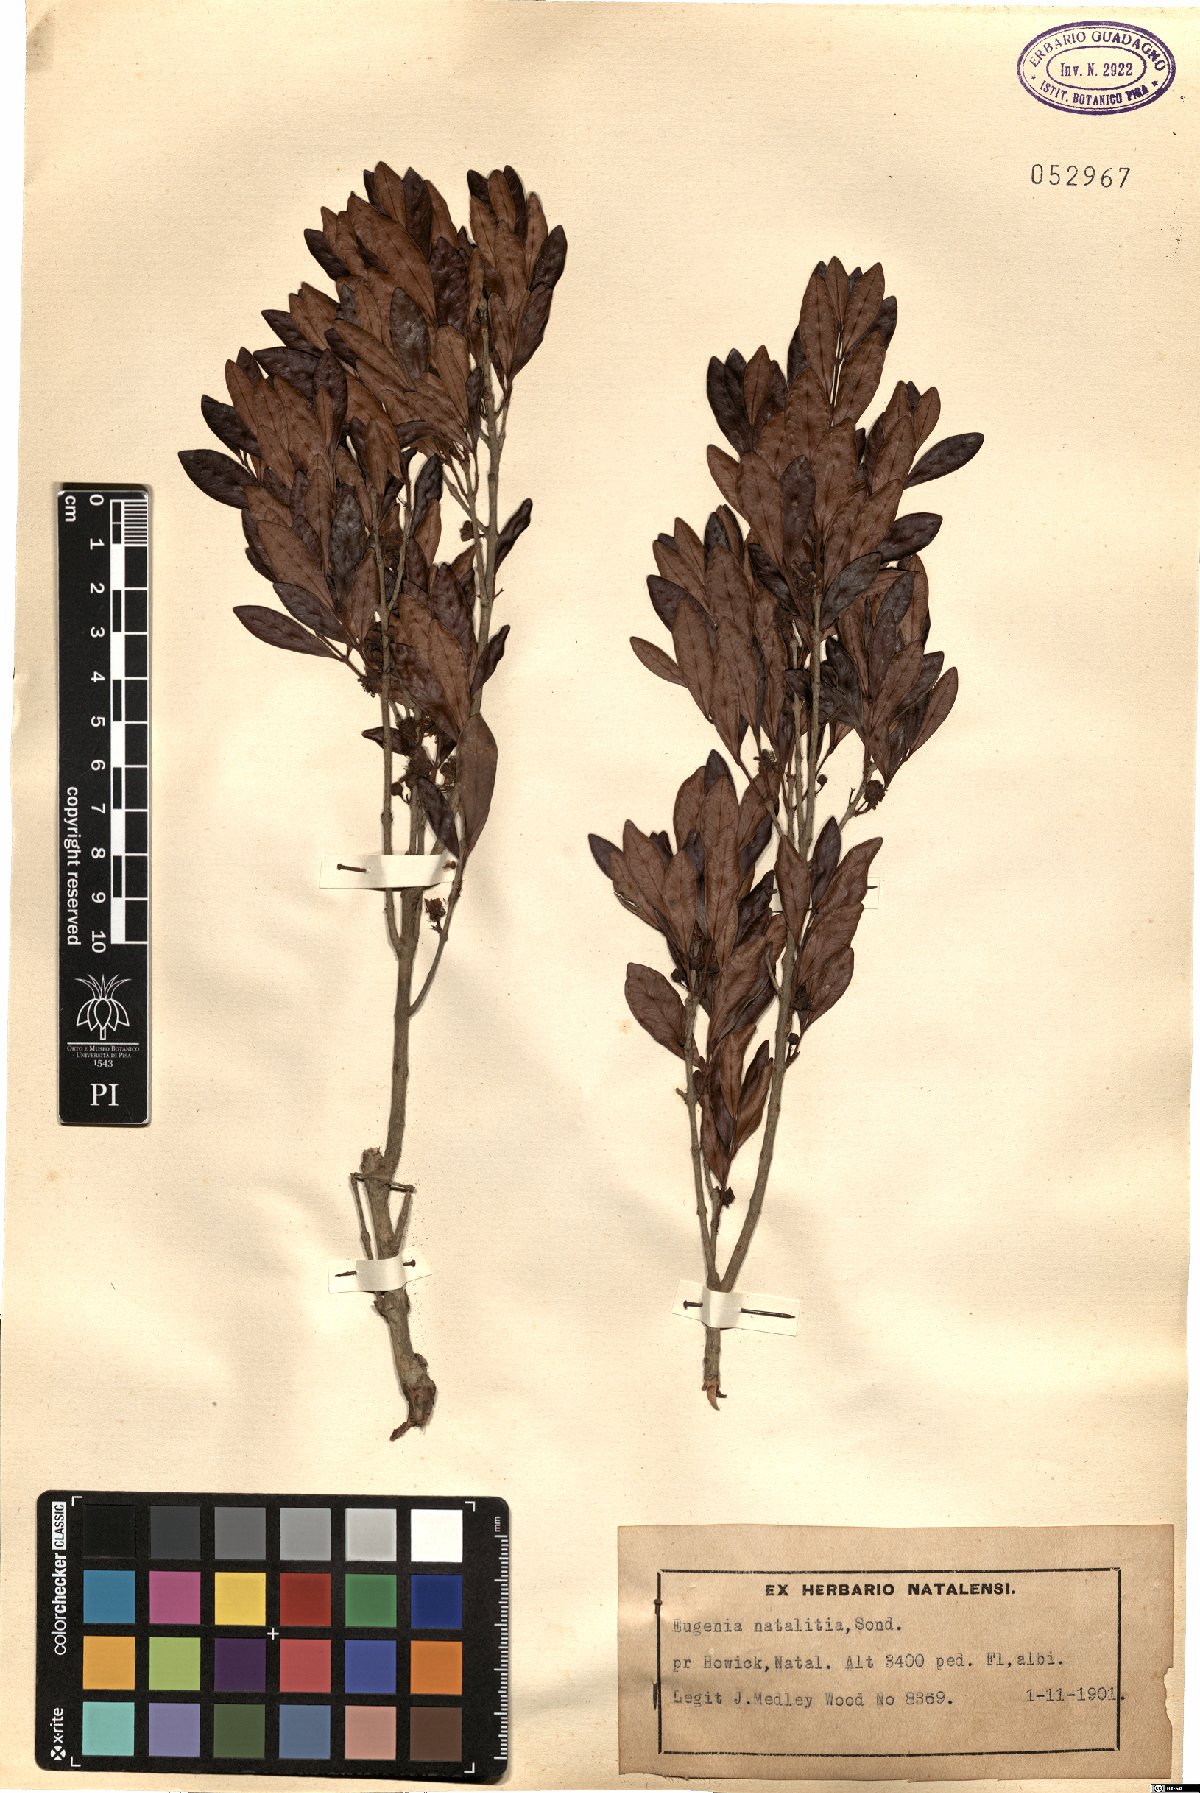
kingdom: Plantae
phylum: Tracheophyta
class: Magnoliopsida
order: Myrtales
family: Myrtaceae
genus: Eugenia
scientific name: Eugenia natalitia
